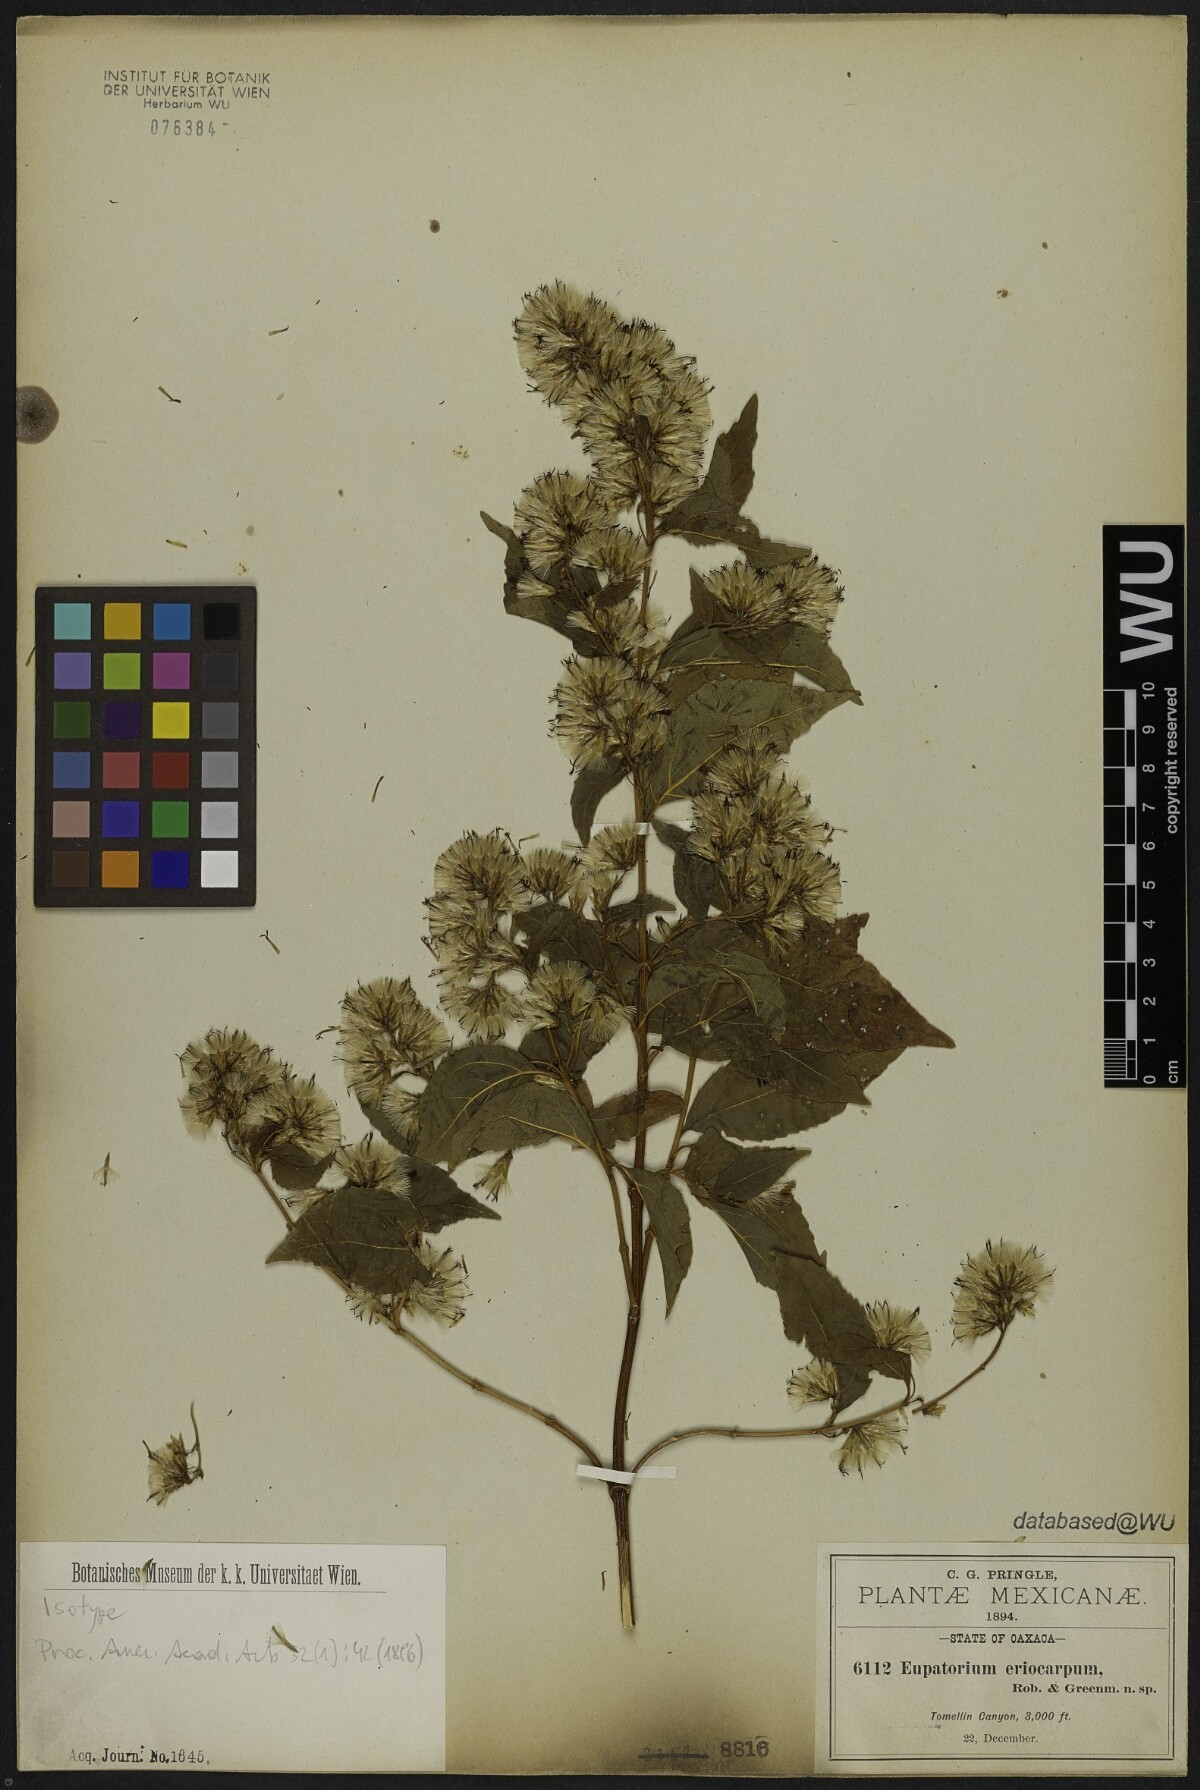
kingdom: Plantae
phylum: Tracheophyta
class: Magnoliopsida
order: Asterales
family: Asteraceae
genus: Kyrsteniopsis
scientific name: Kyrsteniopsis dibolii
